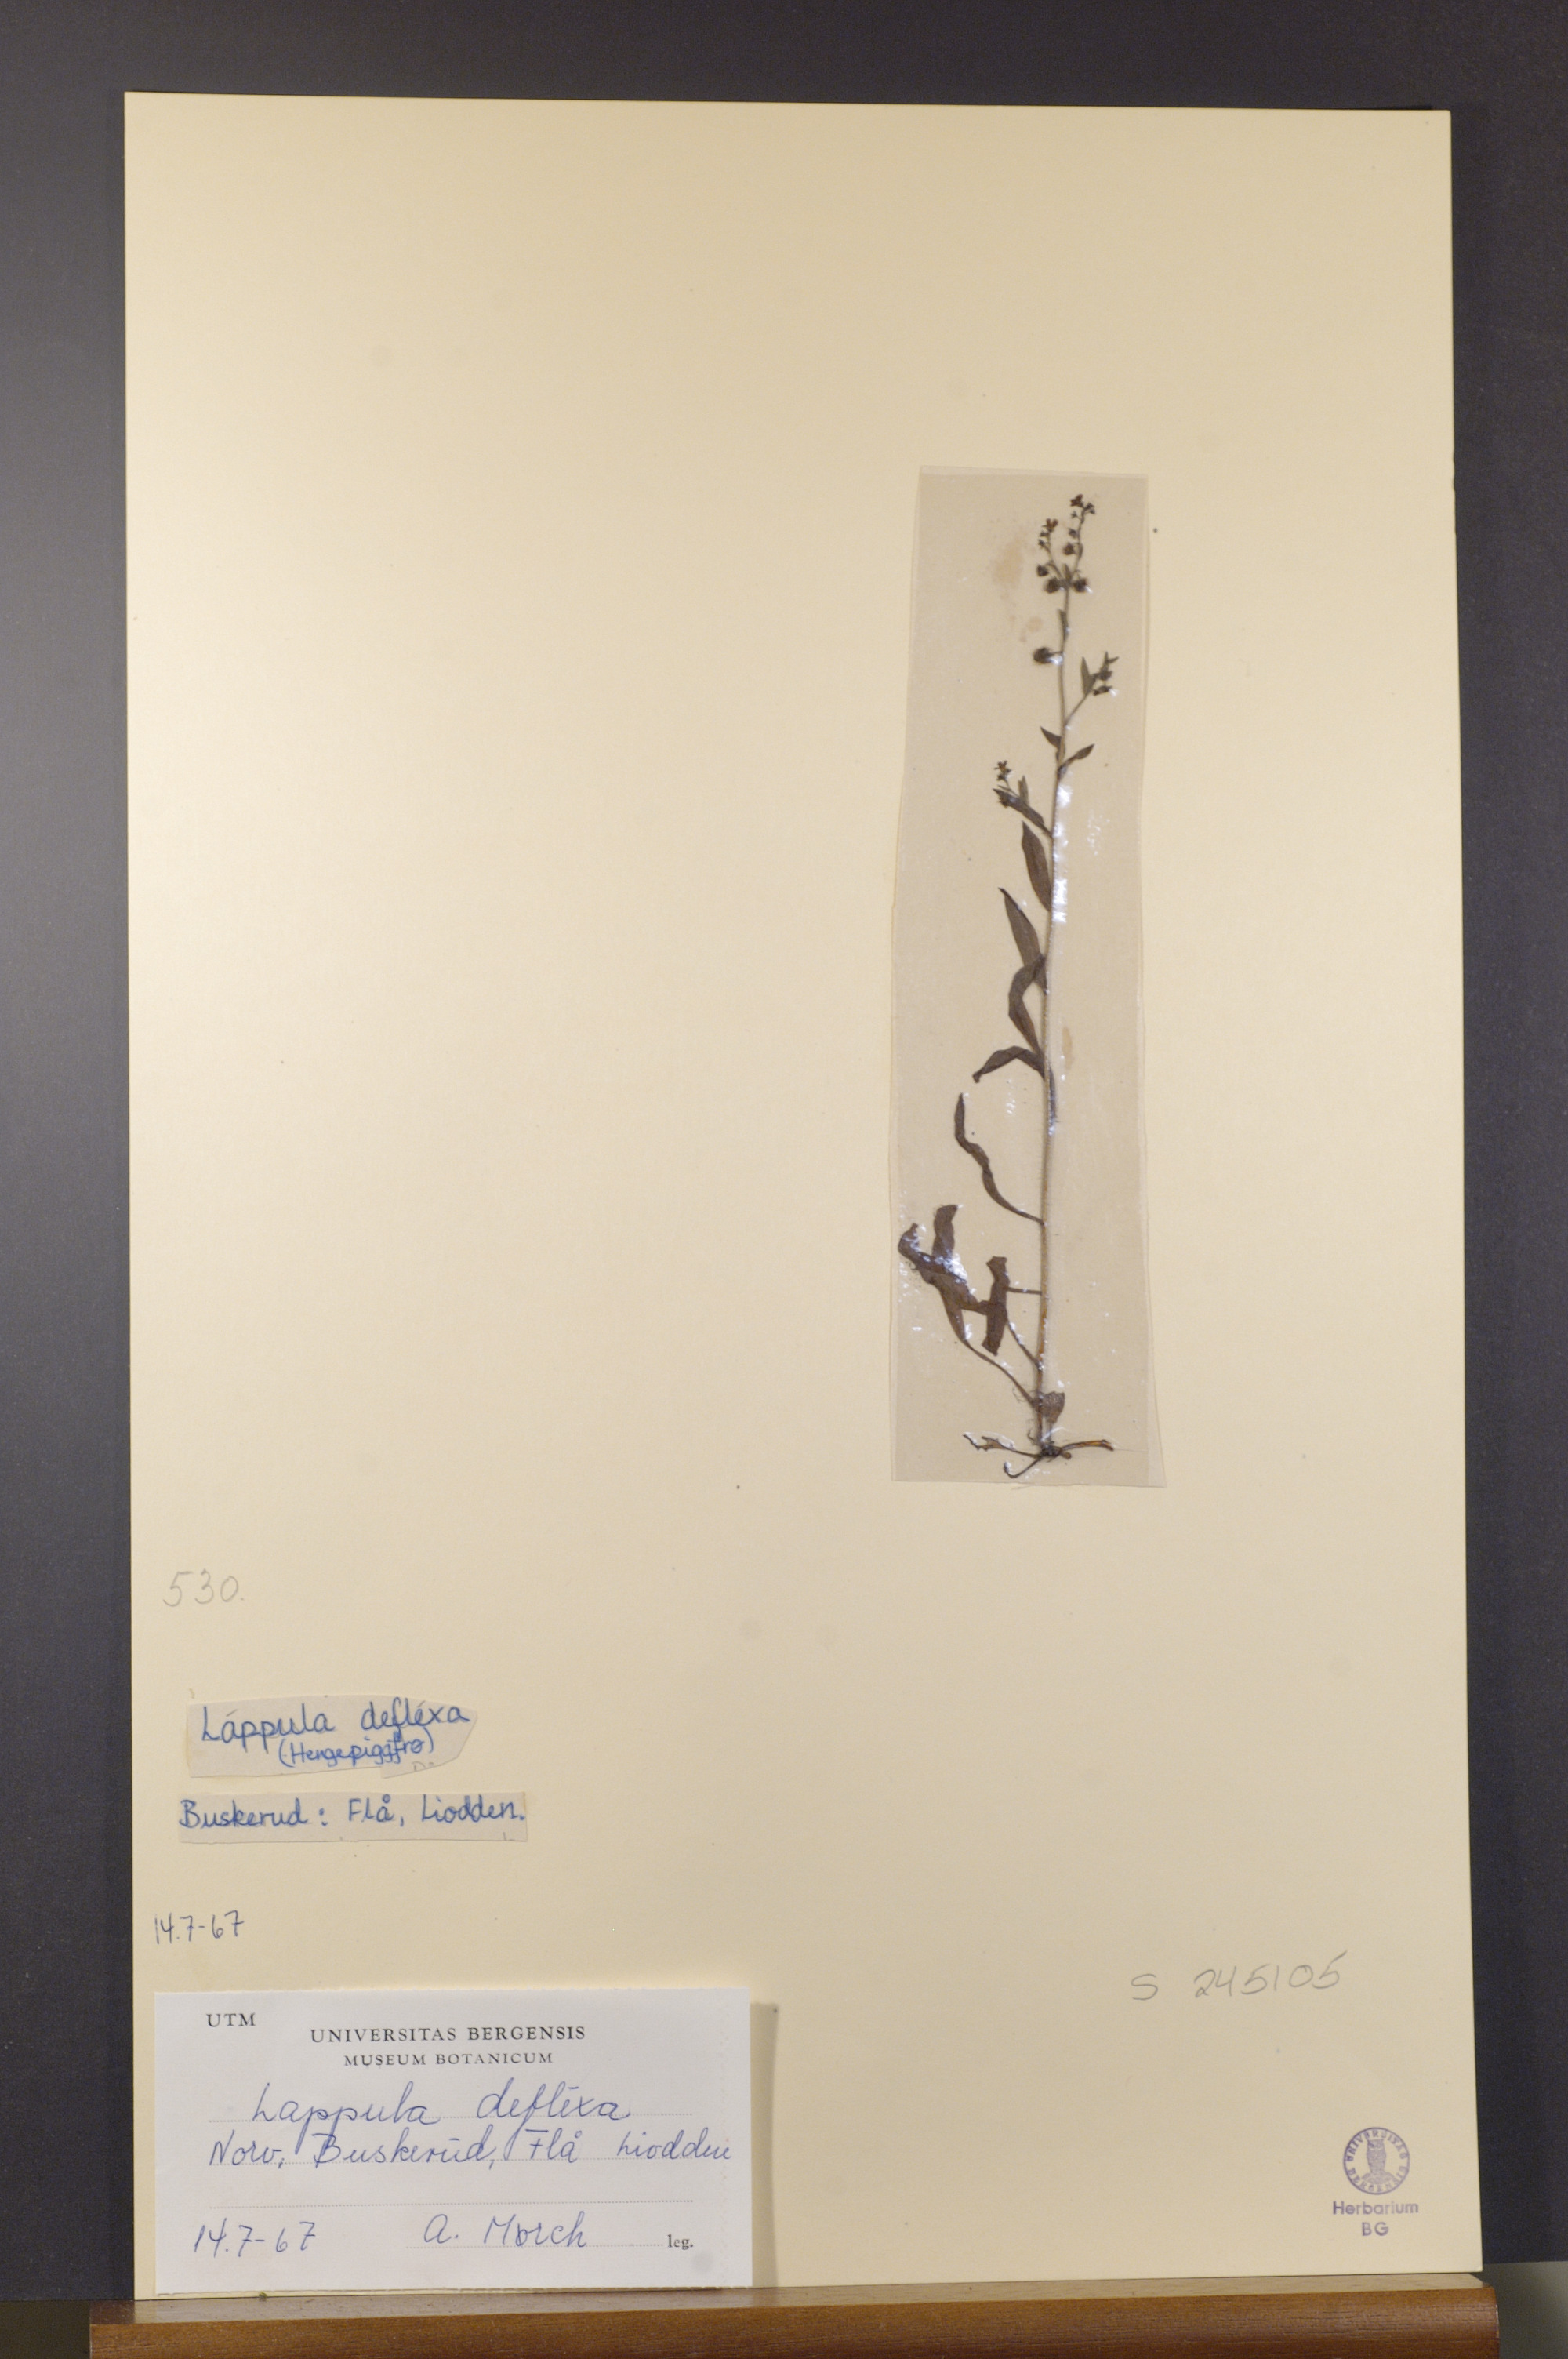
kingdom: Plantae
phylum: Tracheophyta
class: Magnoliopsida
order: Boraginales
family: Boraginaceae
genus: Hackelia
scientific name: Hackelia deflexa
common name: Nodding stickseed
